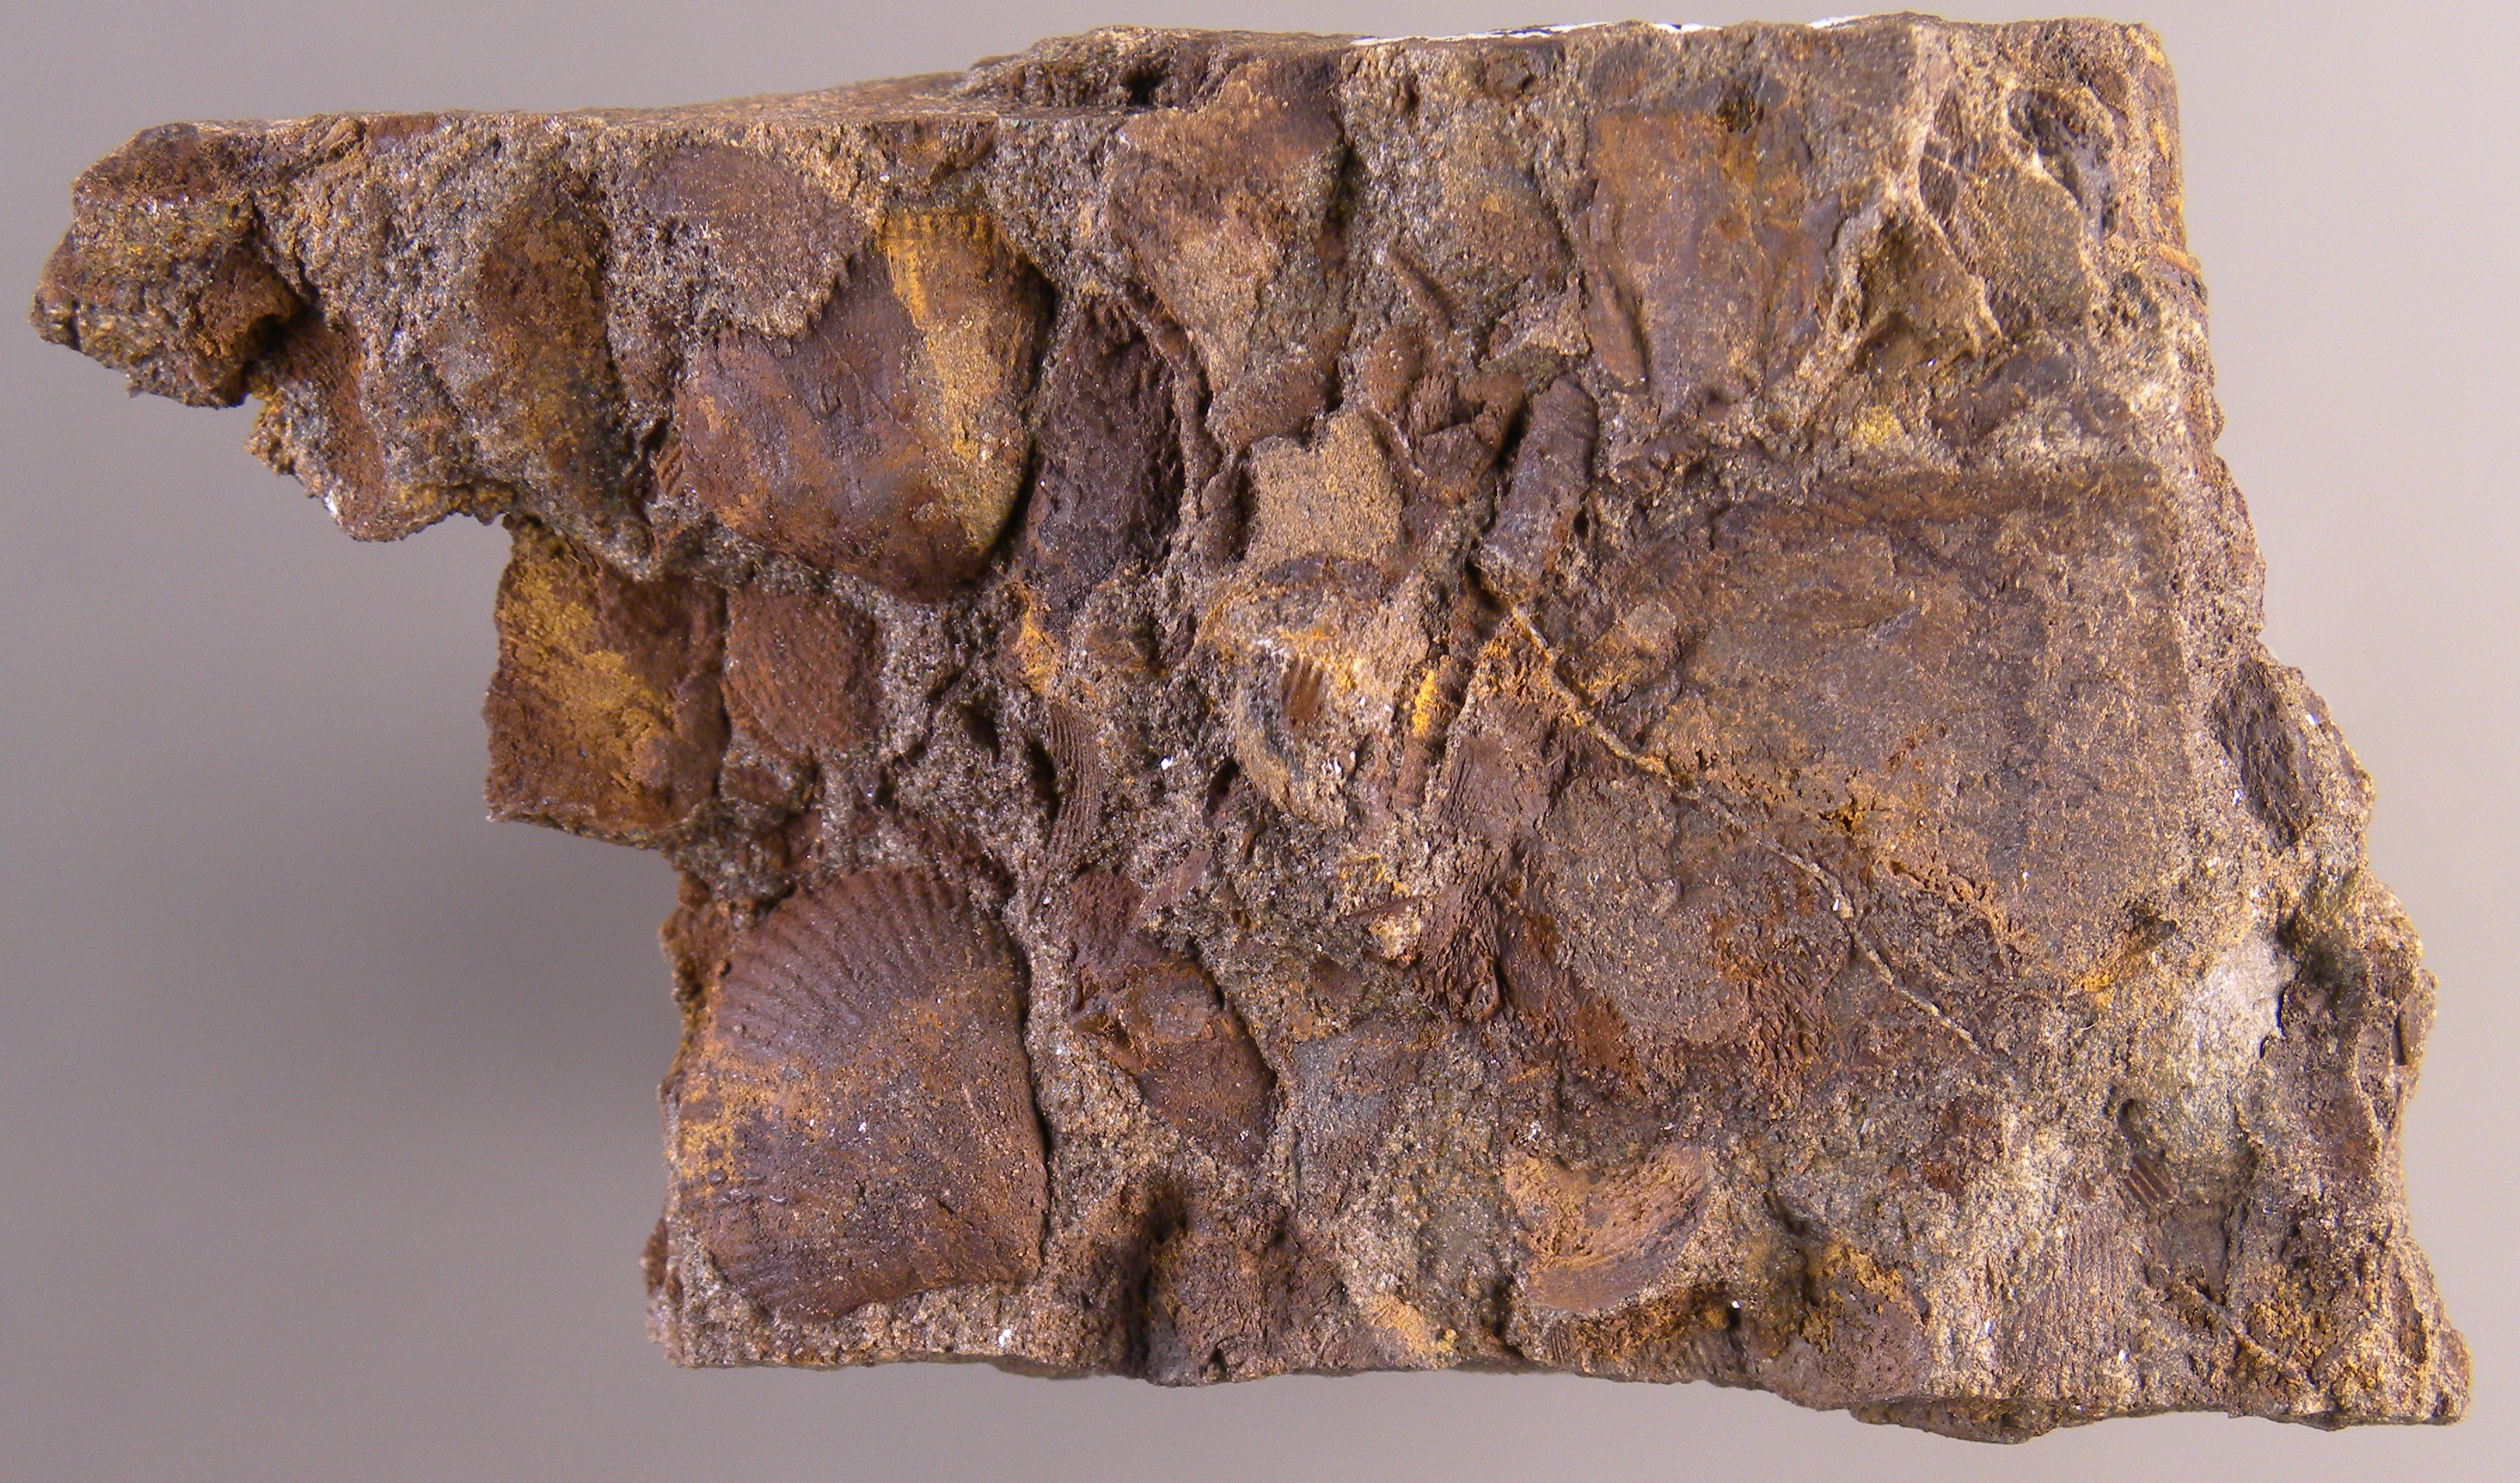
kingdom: Animalia
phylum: Brachiopoda
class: Rhynchonellata
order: Terebratulida
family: Mutationellidae
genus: Mutationella
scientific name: Mutationella
